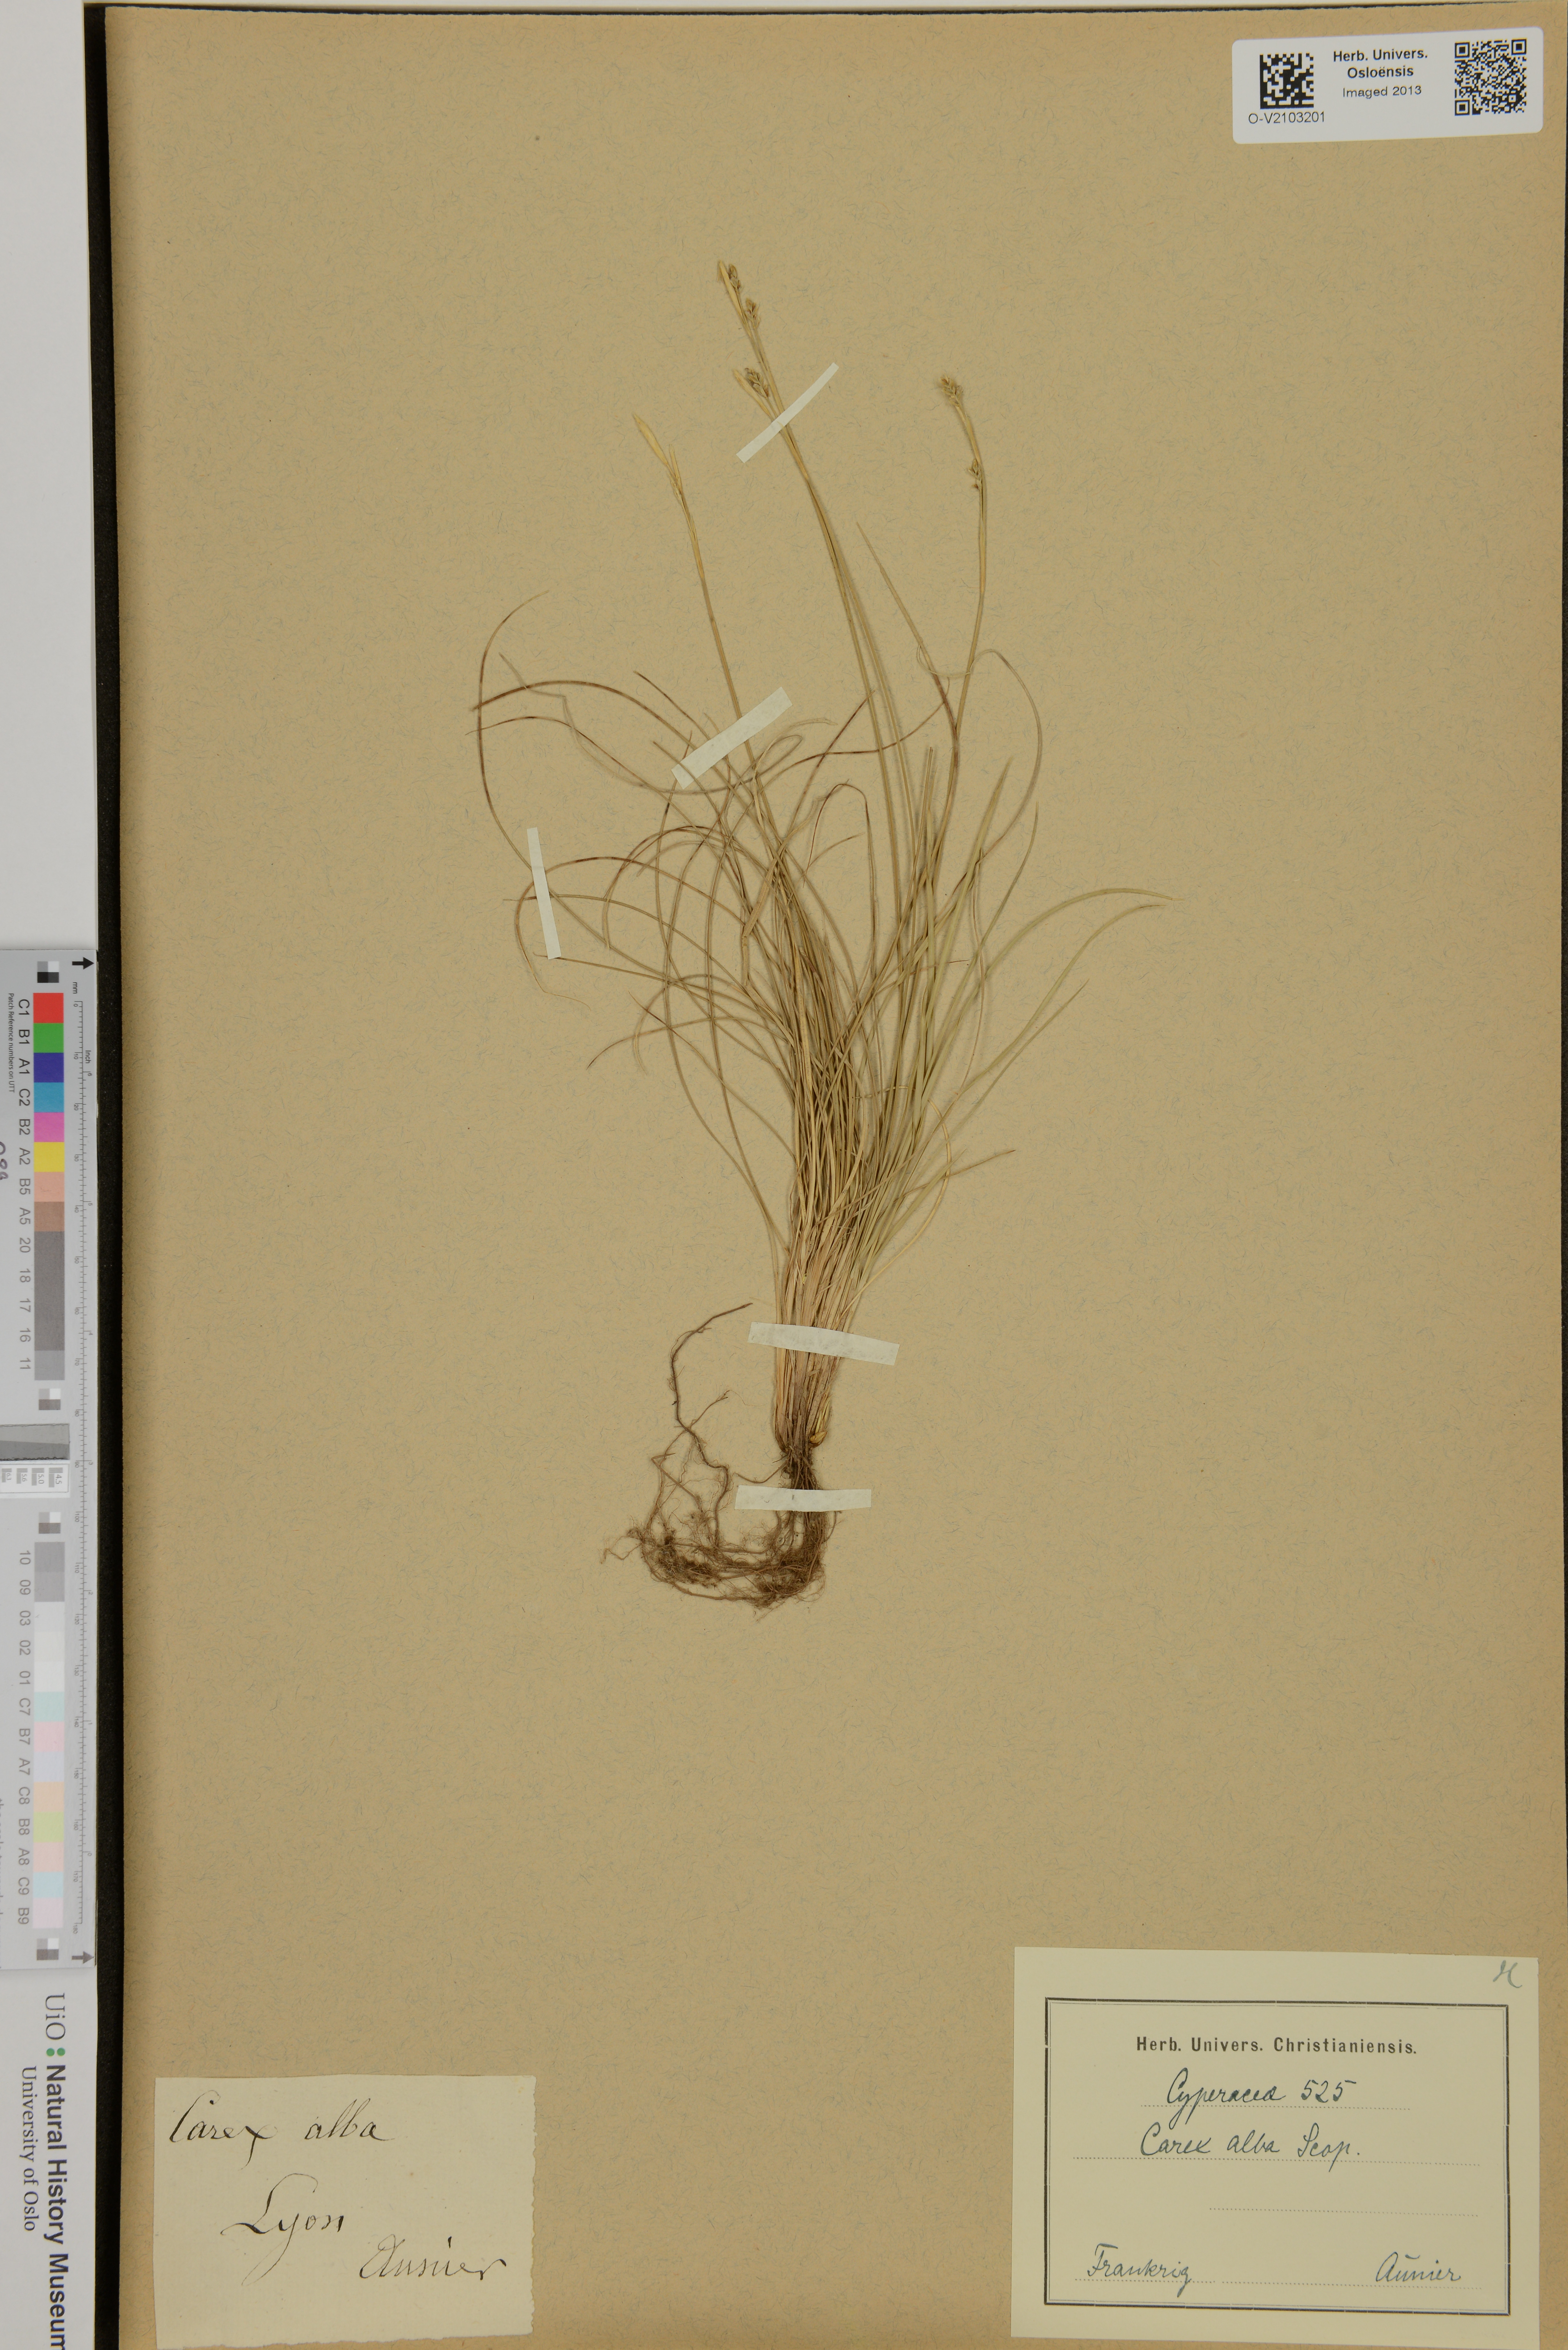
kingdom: Plantae
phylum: Tracheophyta
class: Liliopsida
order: Poales
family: Cyperaceae
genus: Carex
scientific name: Carex alba
